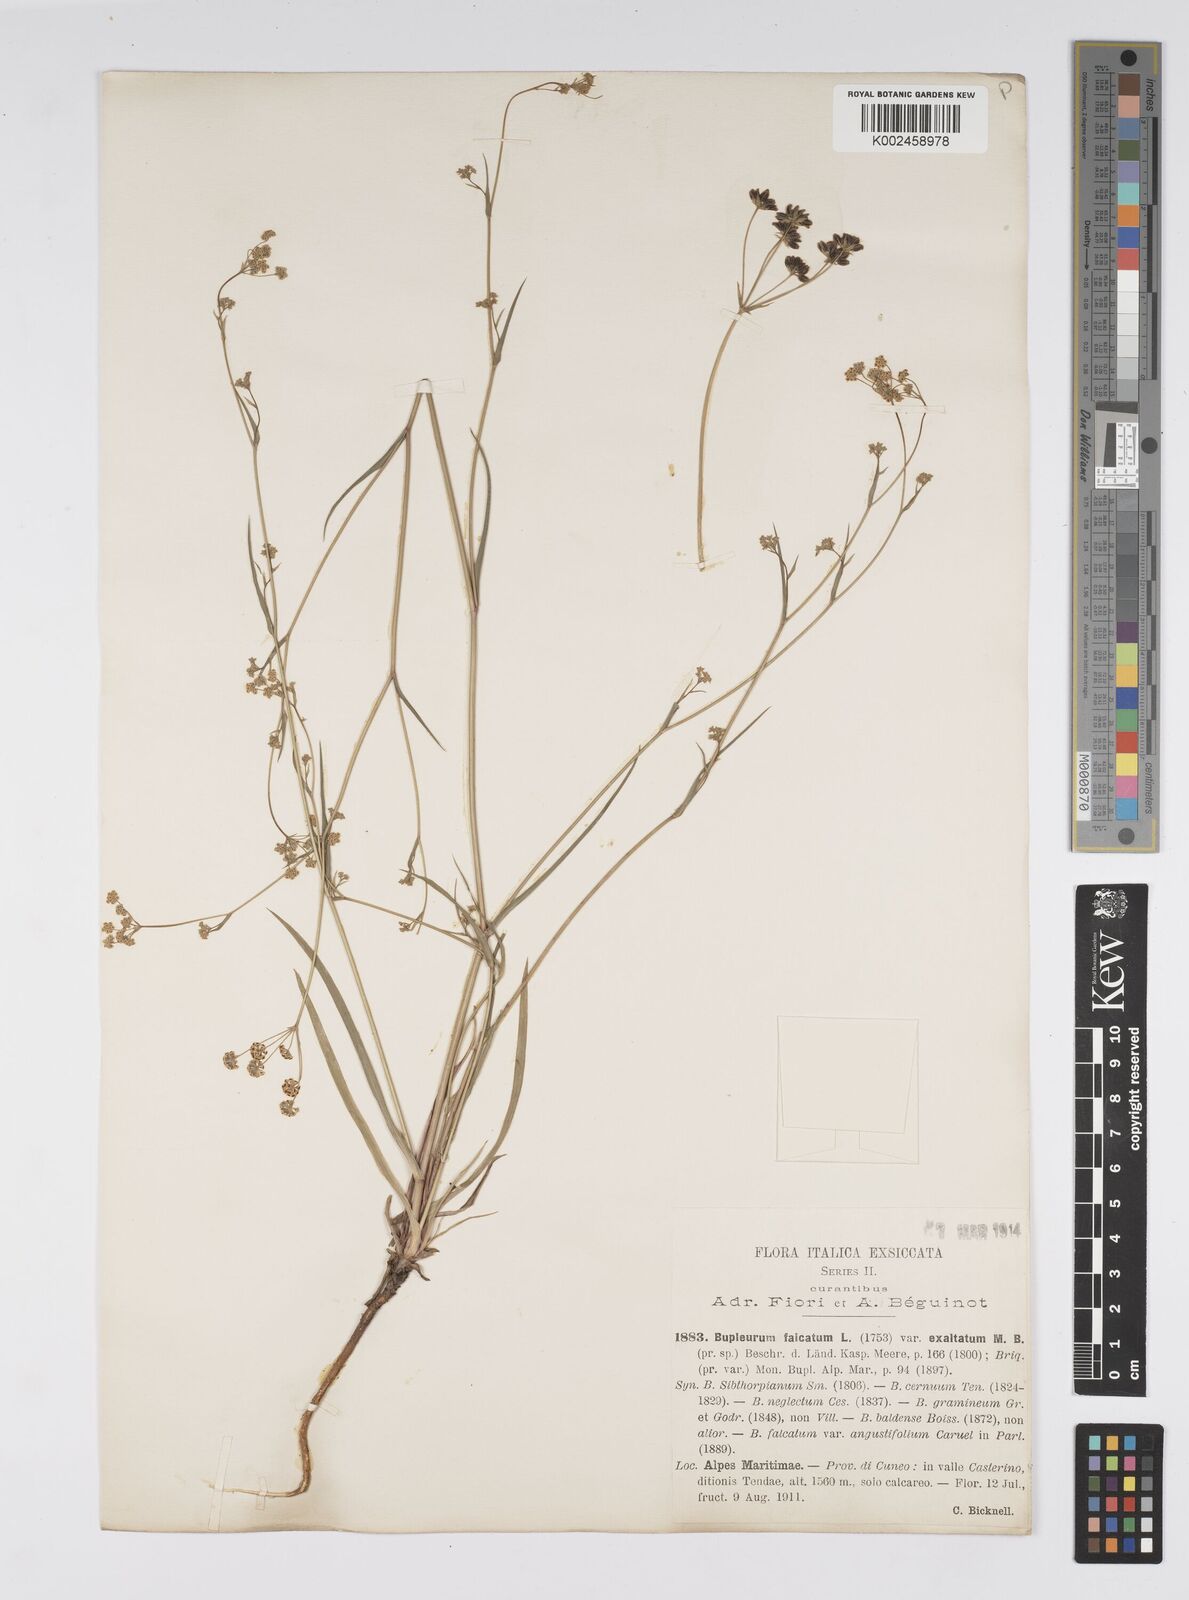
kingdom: Plantae
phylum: Tracheophyta
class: Magnoliopsida
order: Apiales
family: Apiaceae
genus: Bupleurum
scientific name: Bupleurum falcatum
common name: Sickle-leaved hare's-ear
